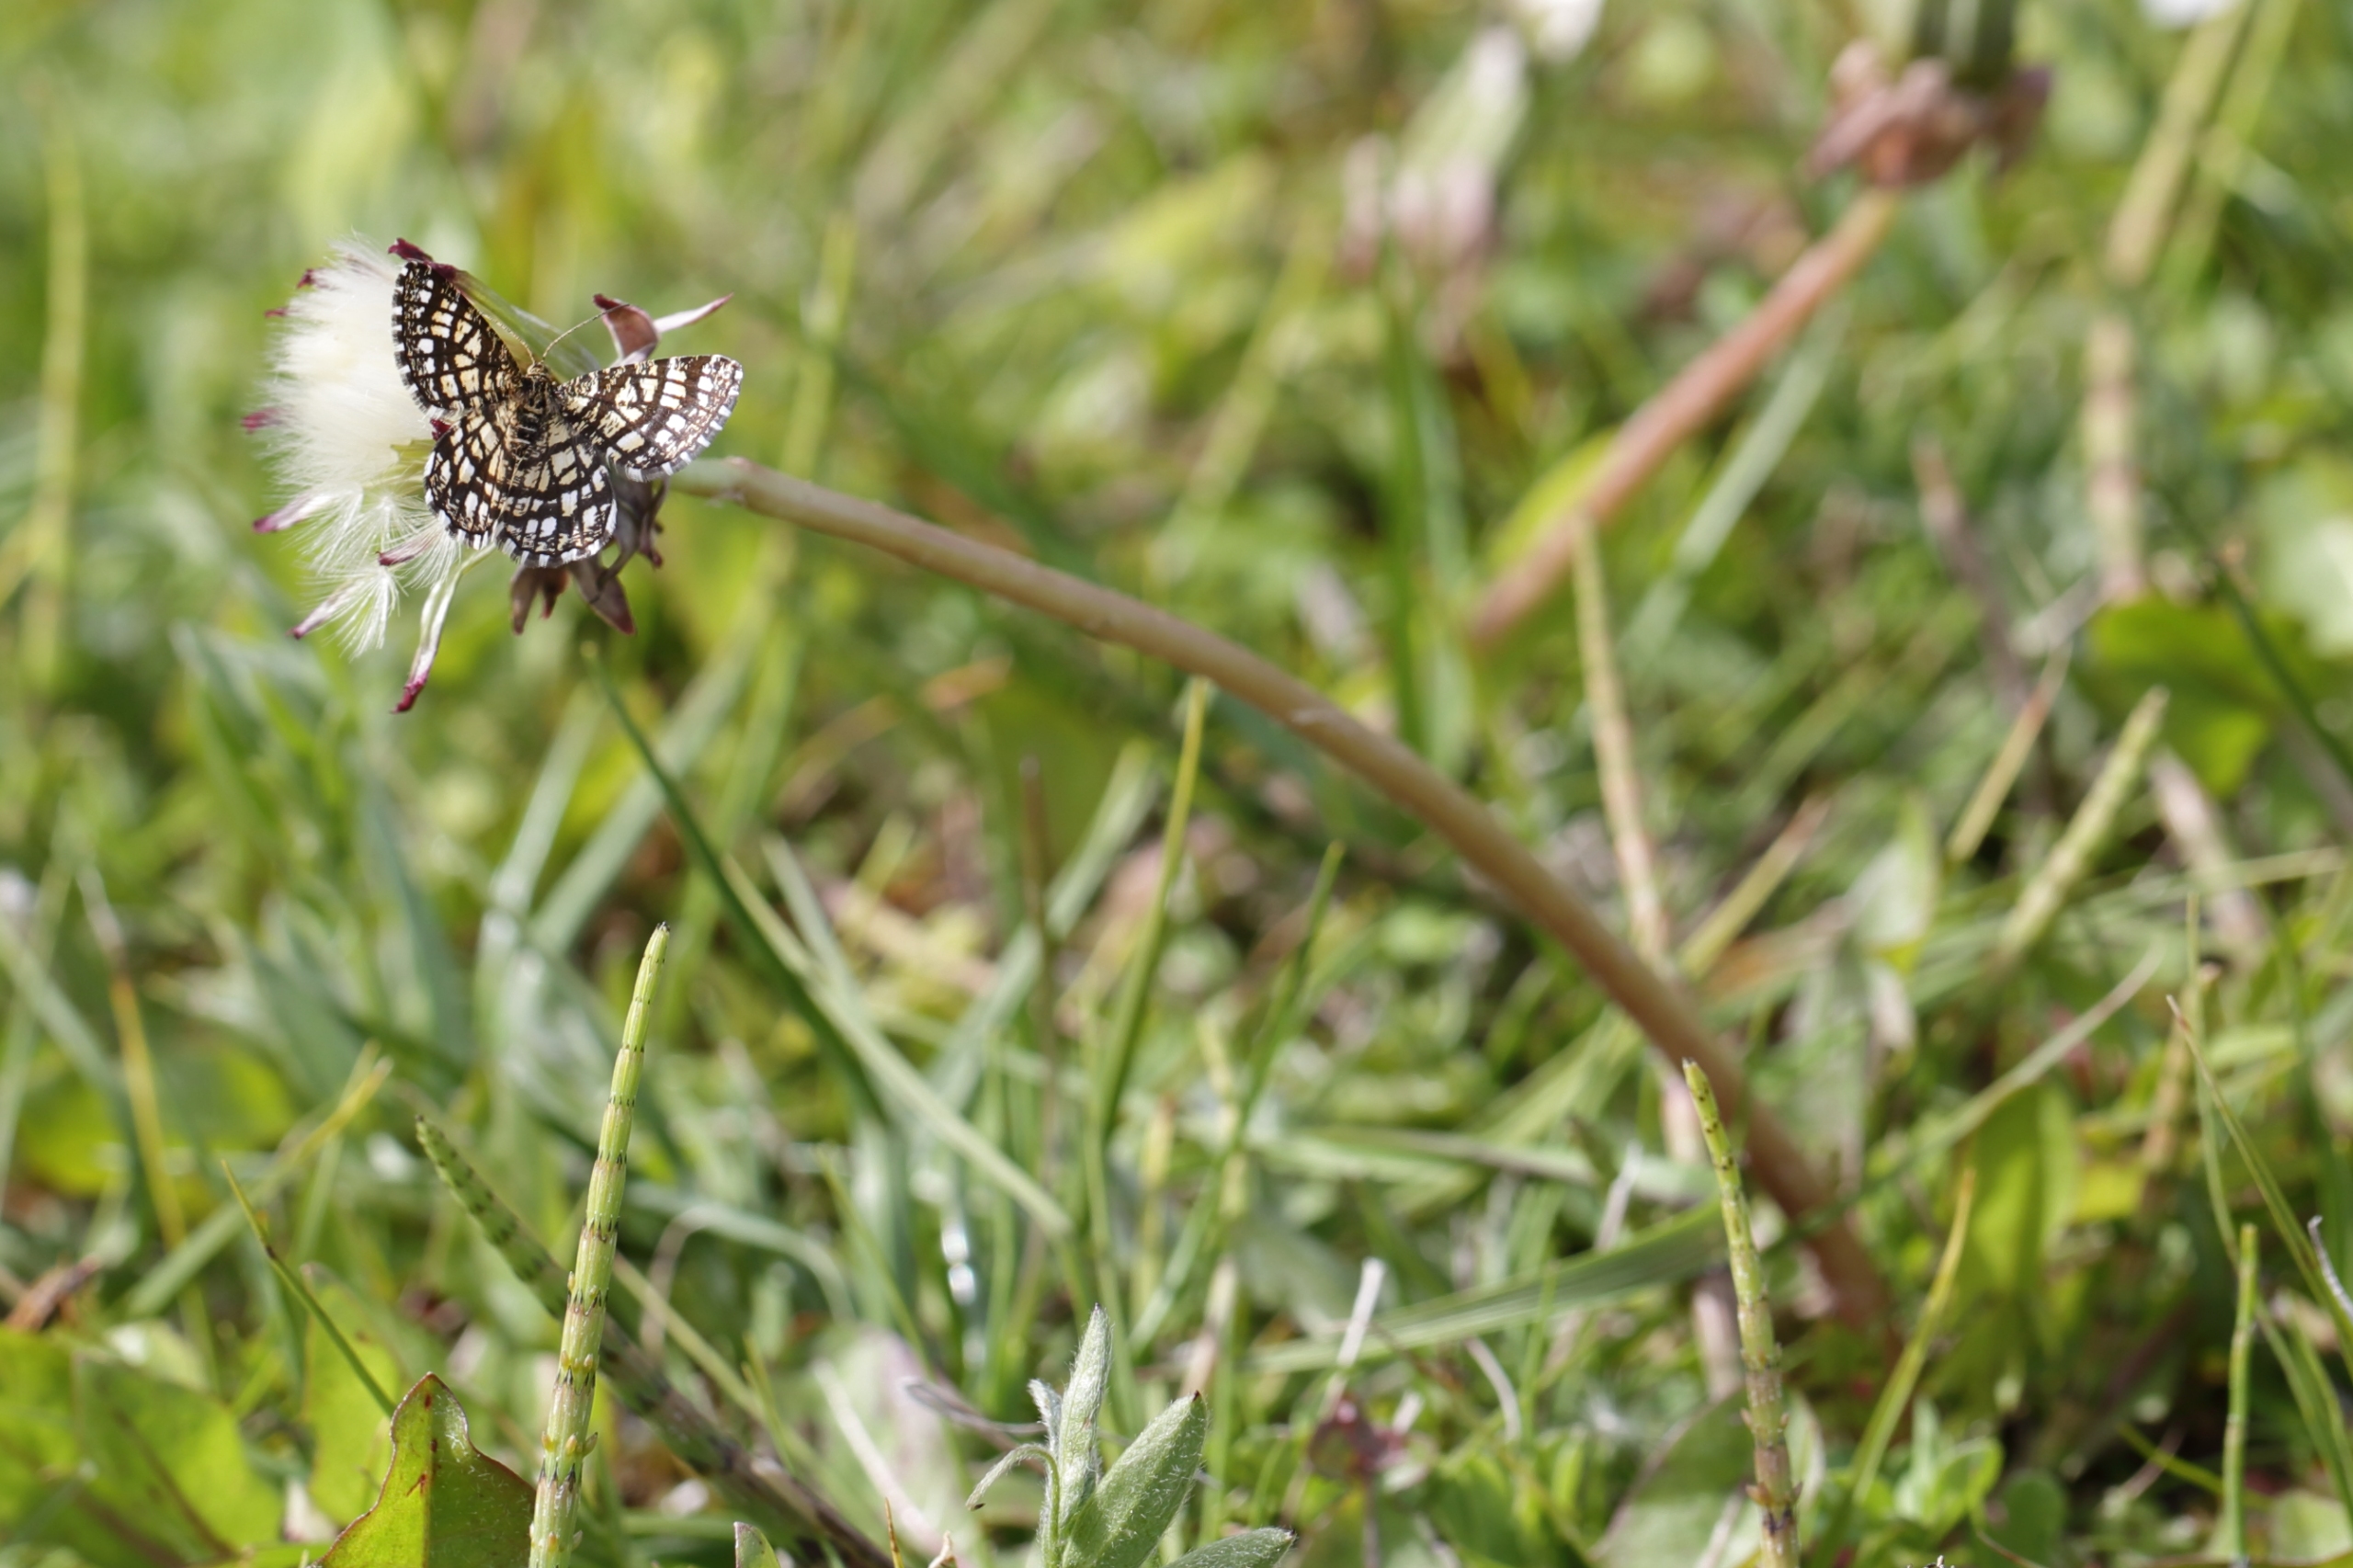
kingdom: Animalia
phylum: Arthropoda
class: Insecta
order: Lepidoptera
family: Geometridae
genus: Chiasmia
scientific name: Chiasmia clathrata
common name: Kløvermåler
